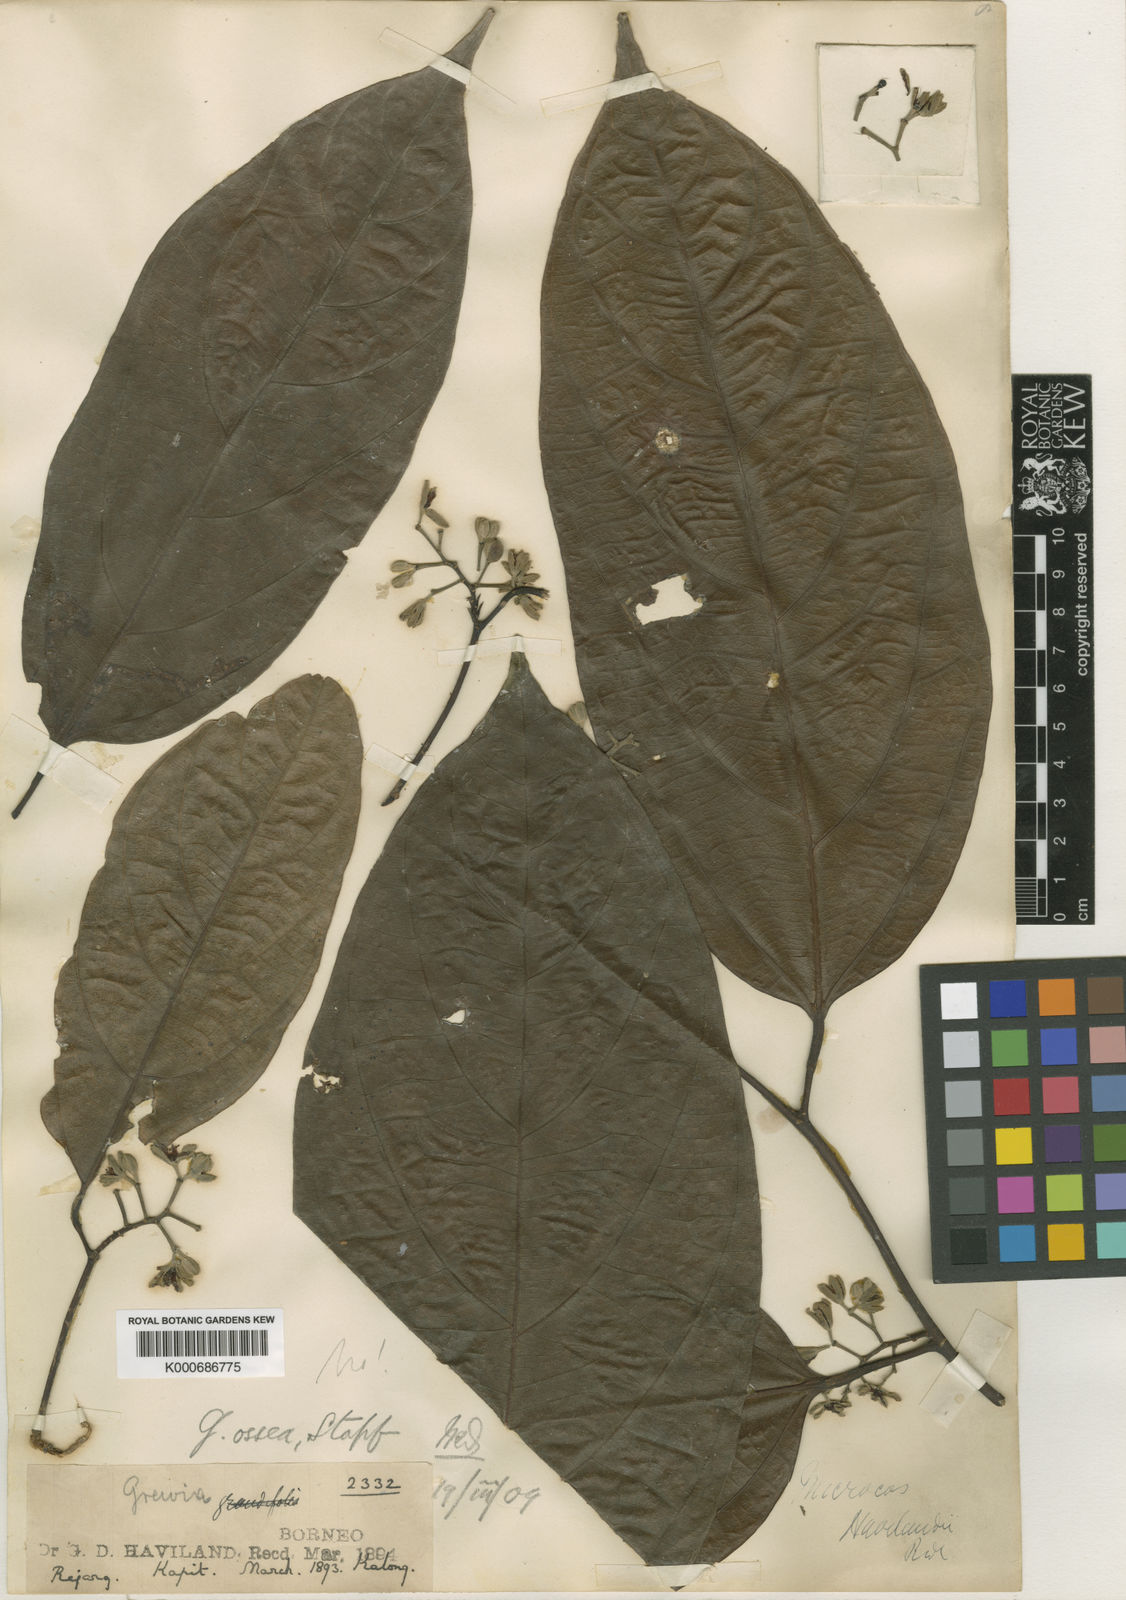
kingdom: Plantae
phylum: Tracheophyta
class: Magnoliopsida
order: Malvales
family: Malvaceae
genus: Microcos
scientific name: Microcos havilandii
